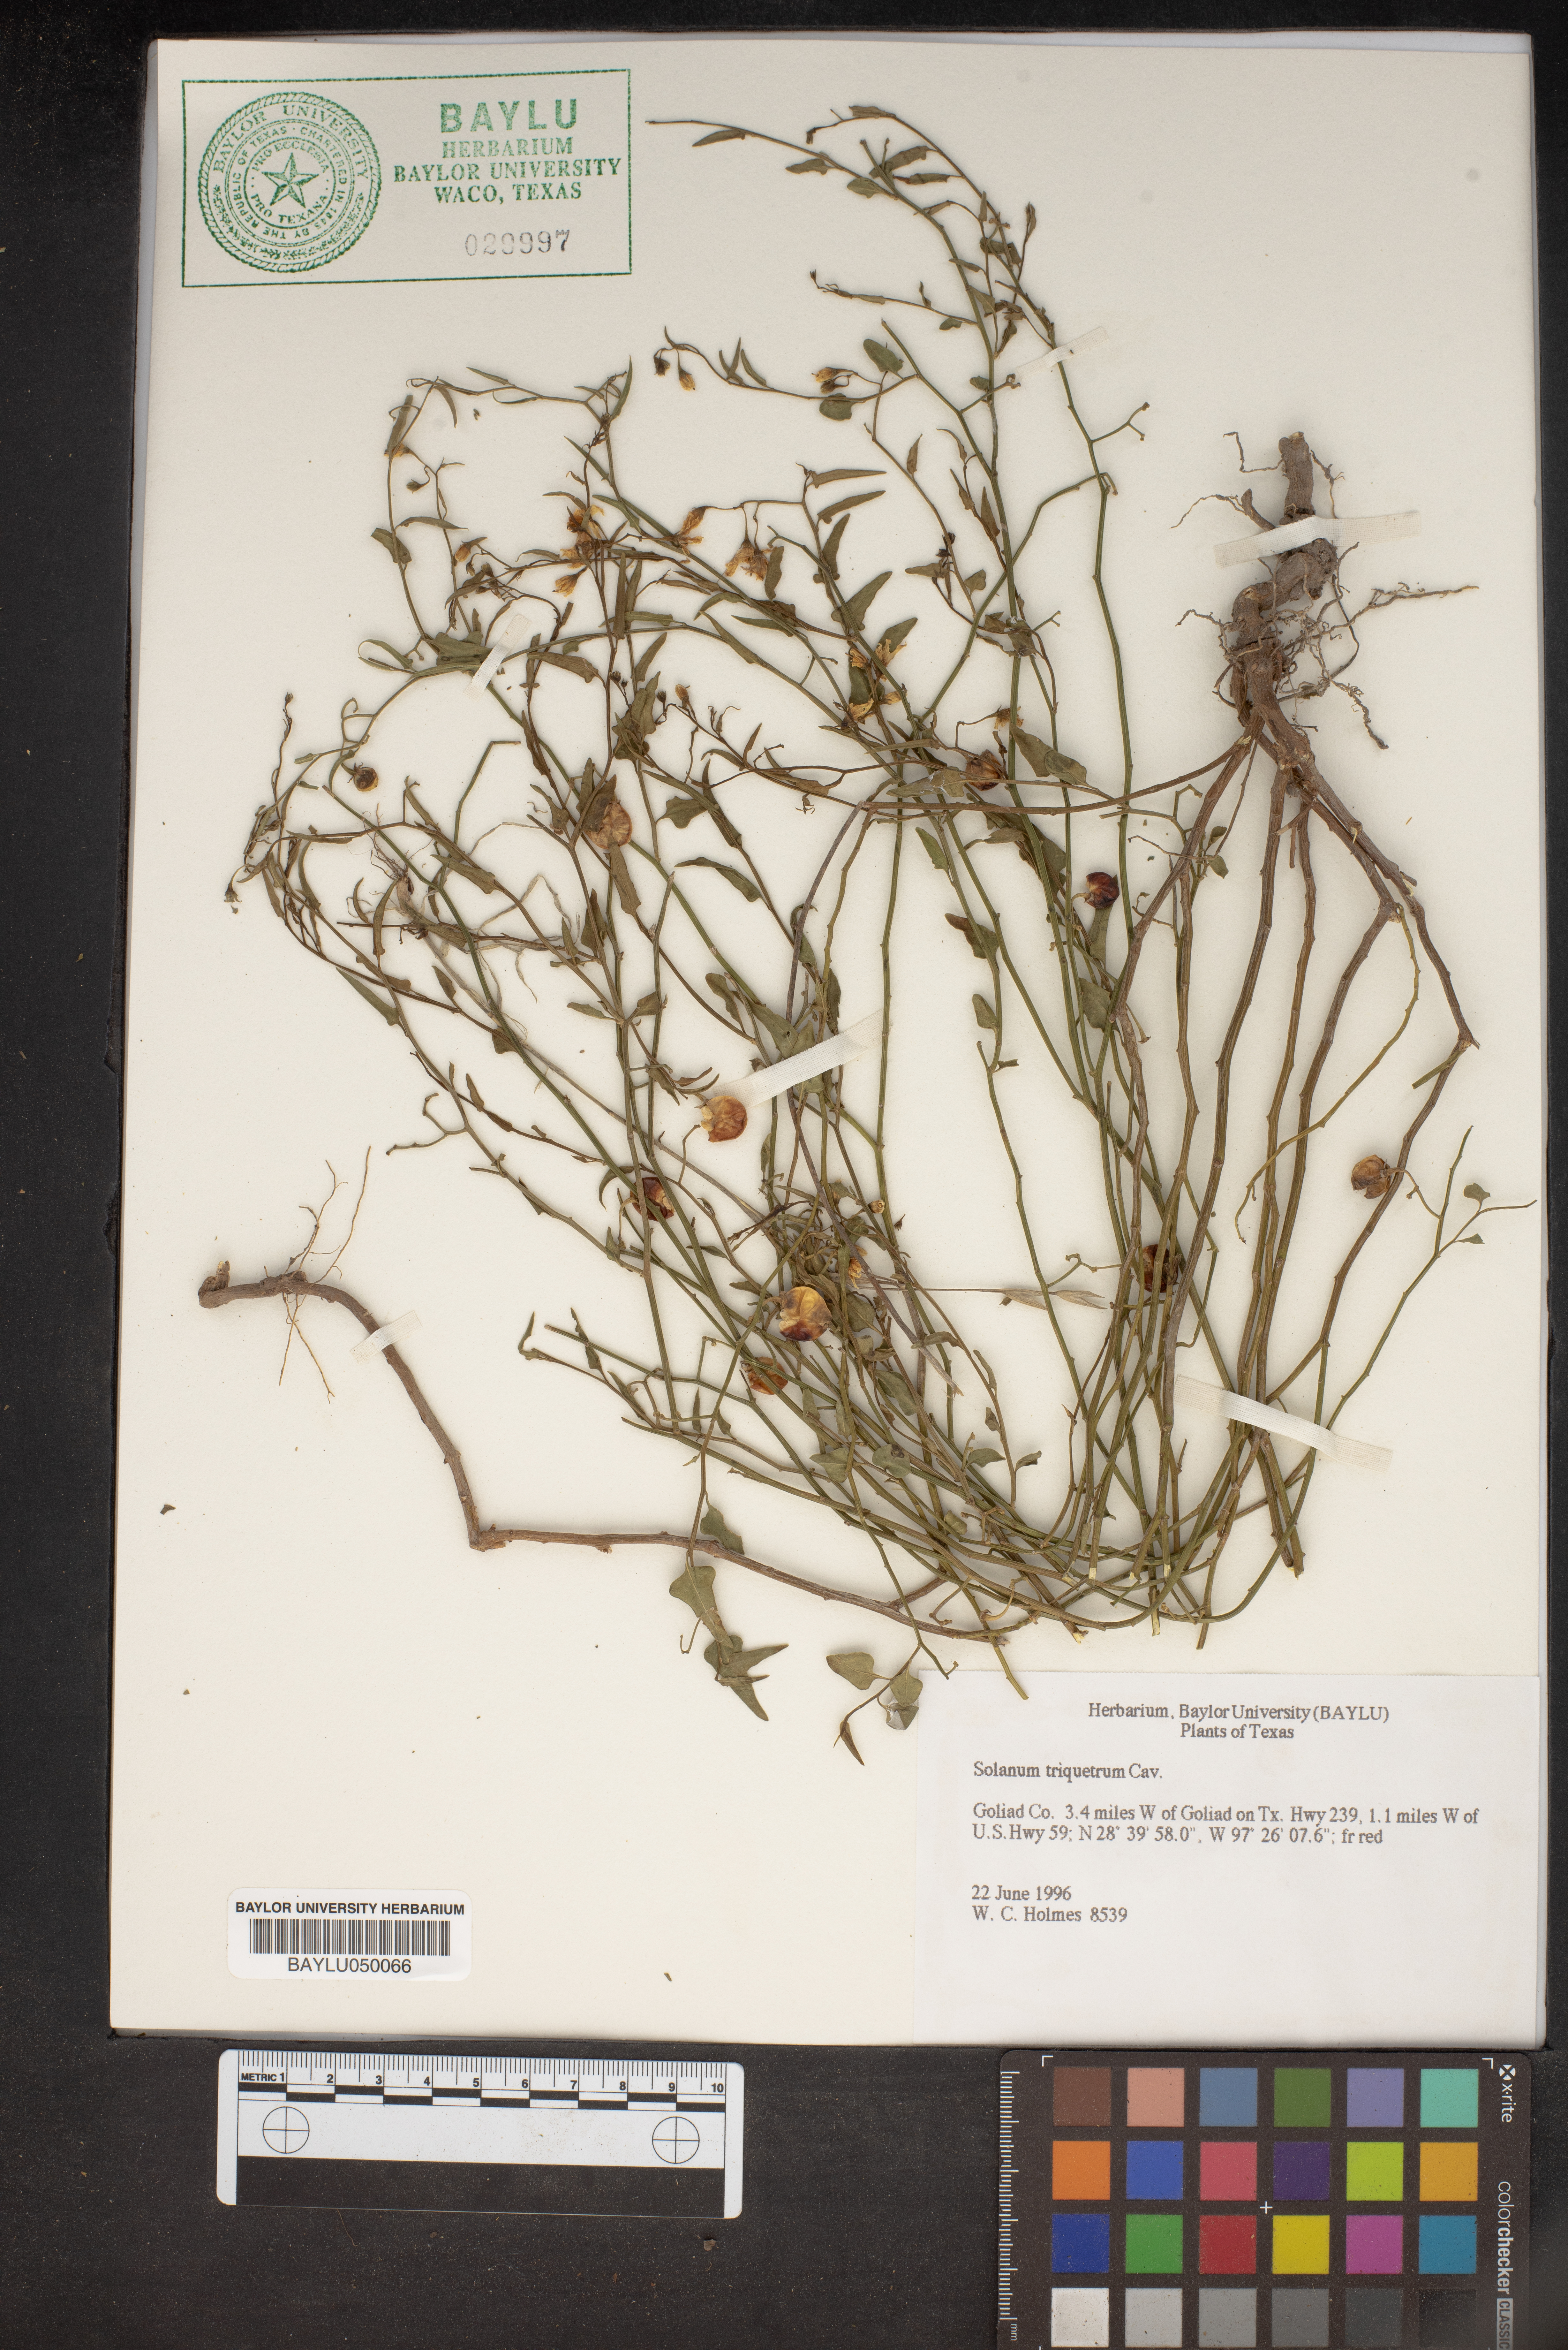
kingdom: Plantae
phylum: Tracheophyta
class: Magnoliopsida
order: Solanales
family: Solanaceae
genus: Solanum
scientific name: Solanum triquetrum
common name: Texas nightshade
